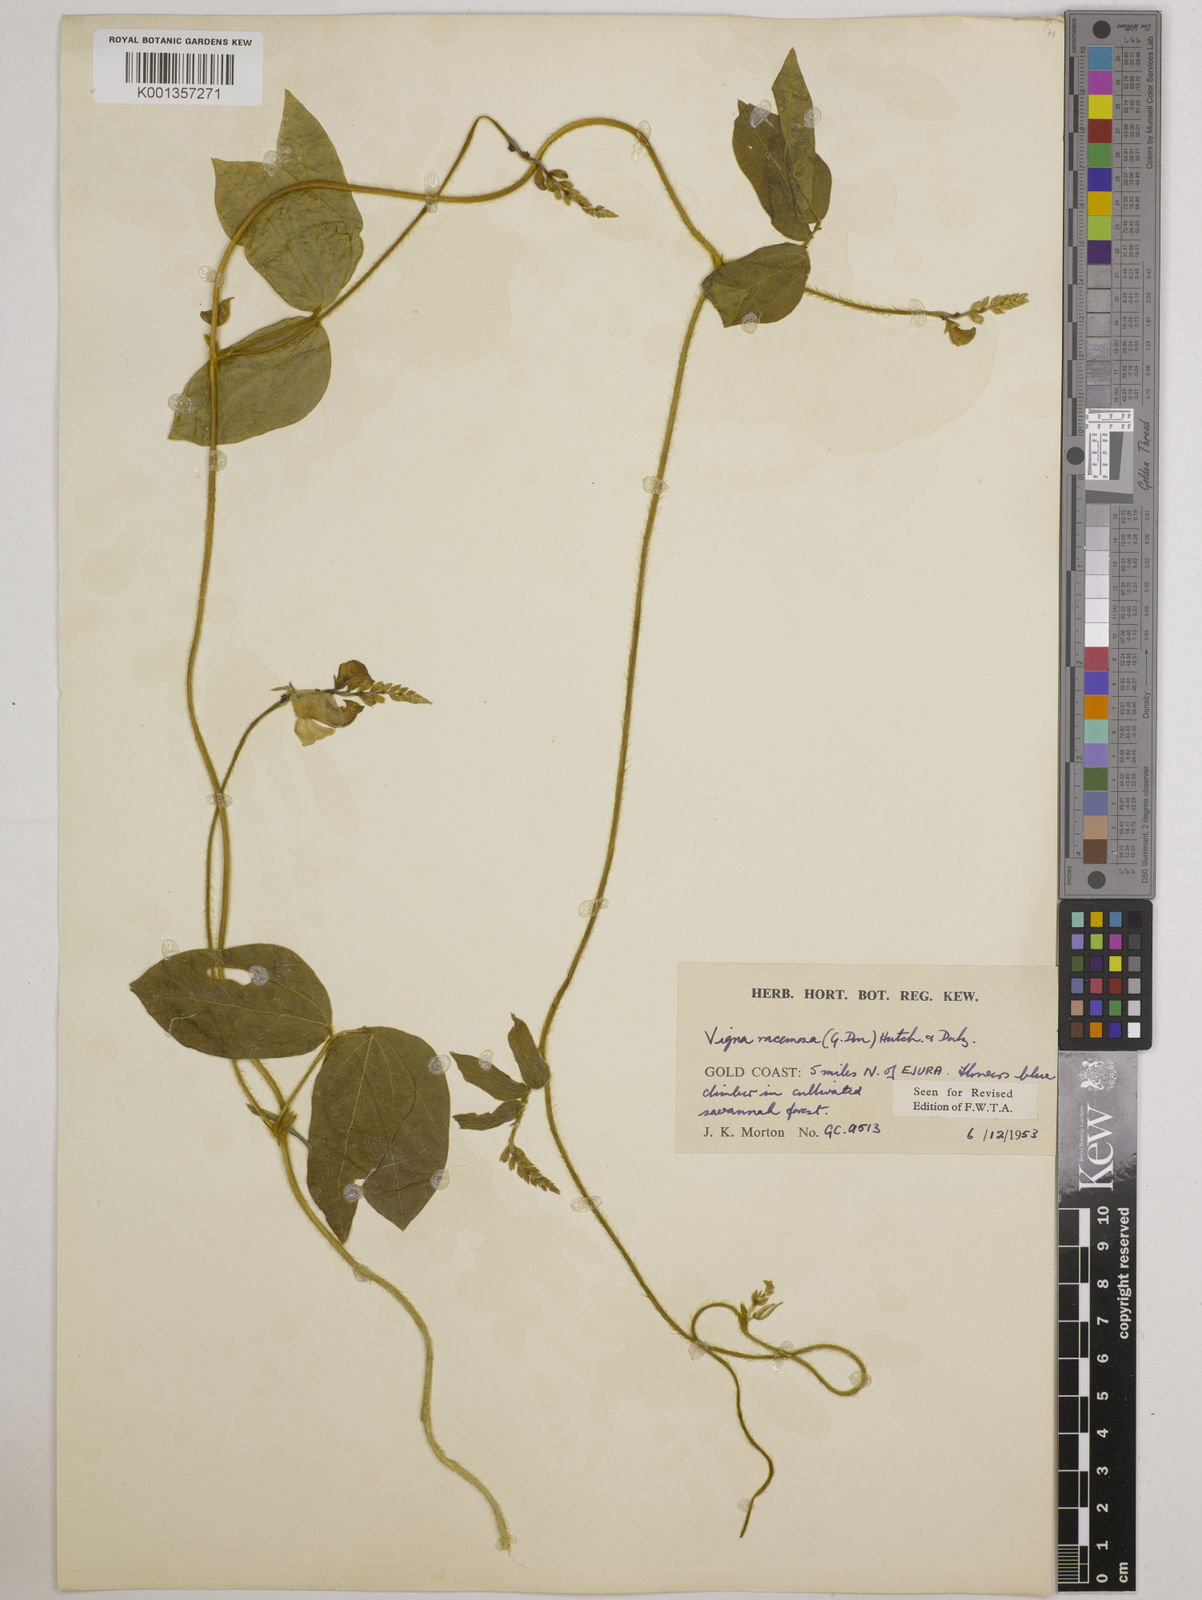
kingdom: Plantae
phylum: Tracheophyta
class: Magnoliopsida
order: Fabales
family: Fabaceae
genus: Vigna
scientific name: Vigna racemosa
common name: Beans not eaten
